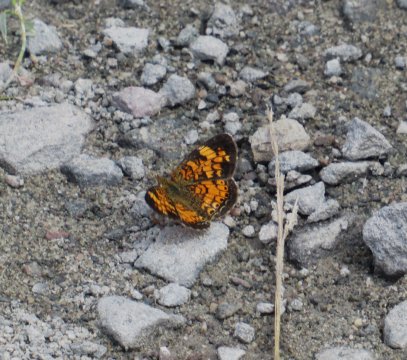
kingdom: Animalia
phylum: Arthropoda
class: Insecta
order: Lepidoptera
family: Nymphalidae
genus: Phyciodes
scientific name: Phyciodes tharos
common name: Pearl Crescent
